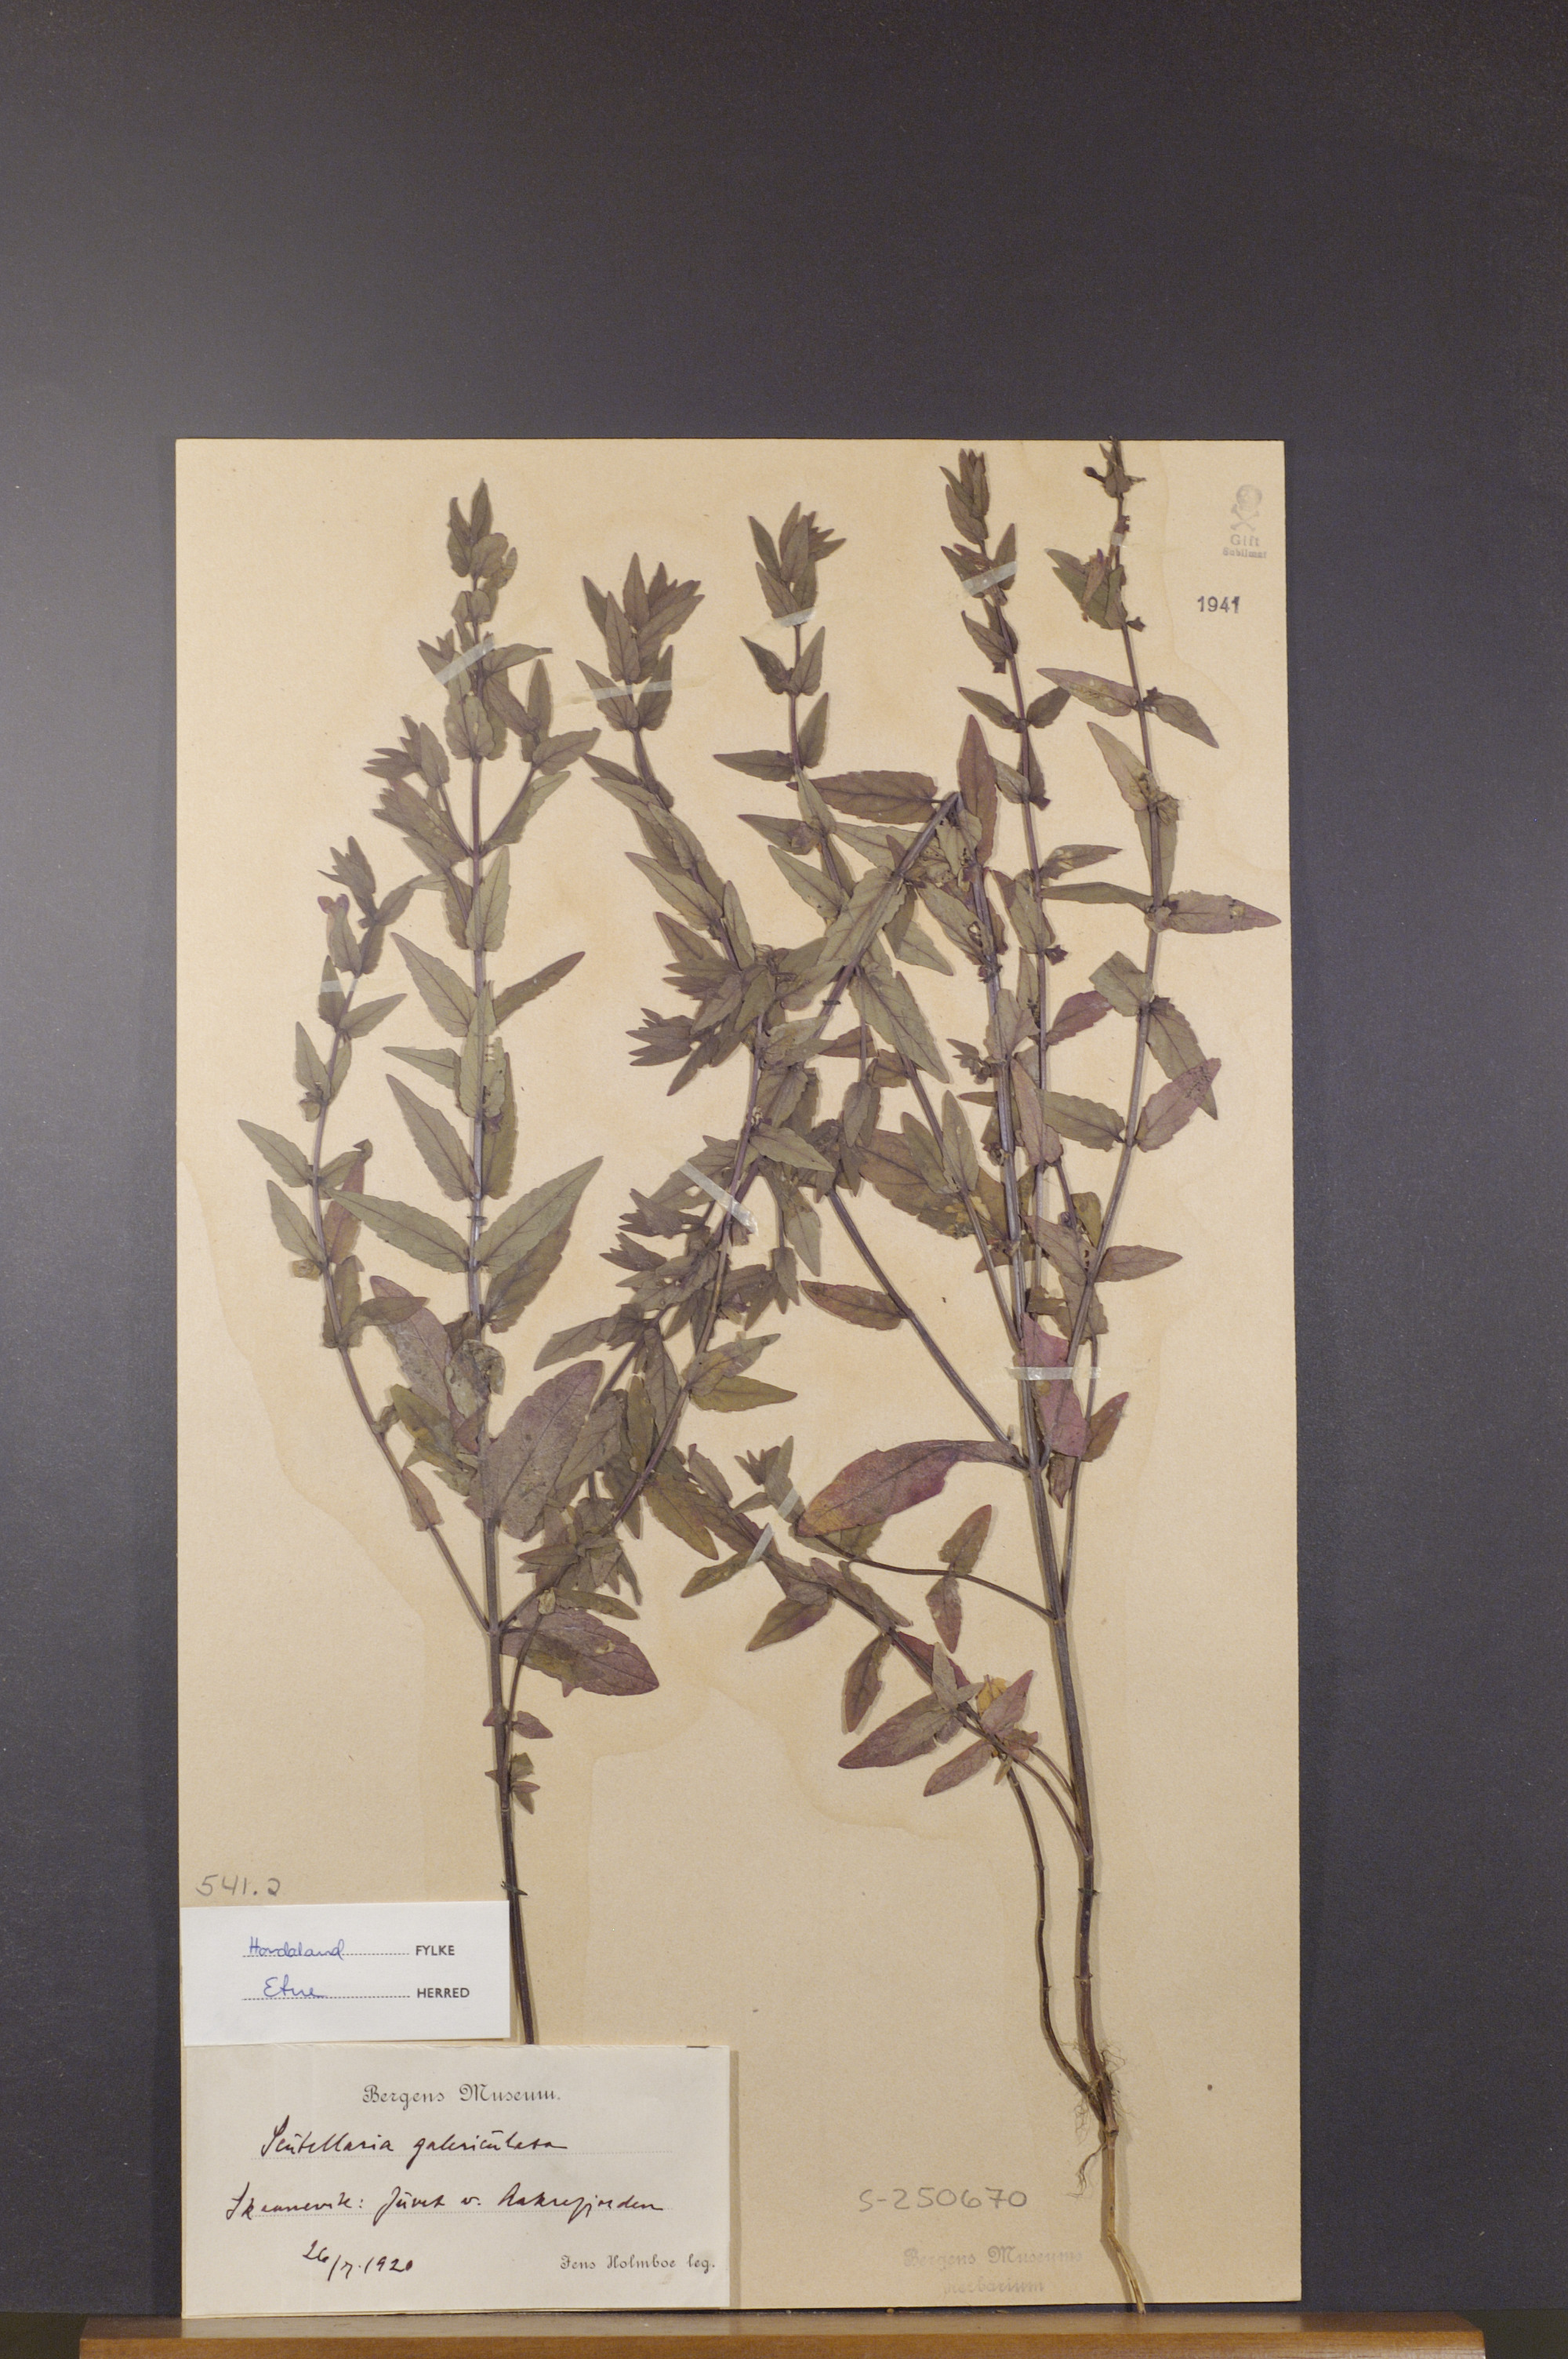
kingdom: Plantae
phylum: Tracheophyta
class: Magnoliopsida
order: Lamiales
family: Lamiaceae
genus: Scutellaria
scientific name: Scutellaria galericulata
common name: Skullcap
